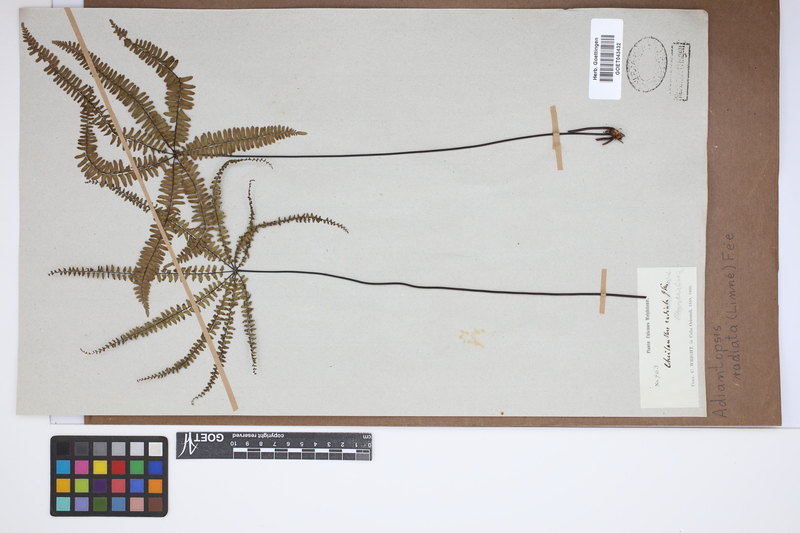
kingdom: Plantae
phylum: Tracheophyta
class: Polypodiopsida
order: Polypodiales
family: Pteridaceae
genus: Adiantopsis
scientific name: Adiantopsis radiata
